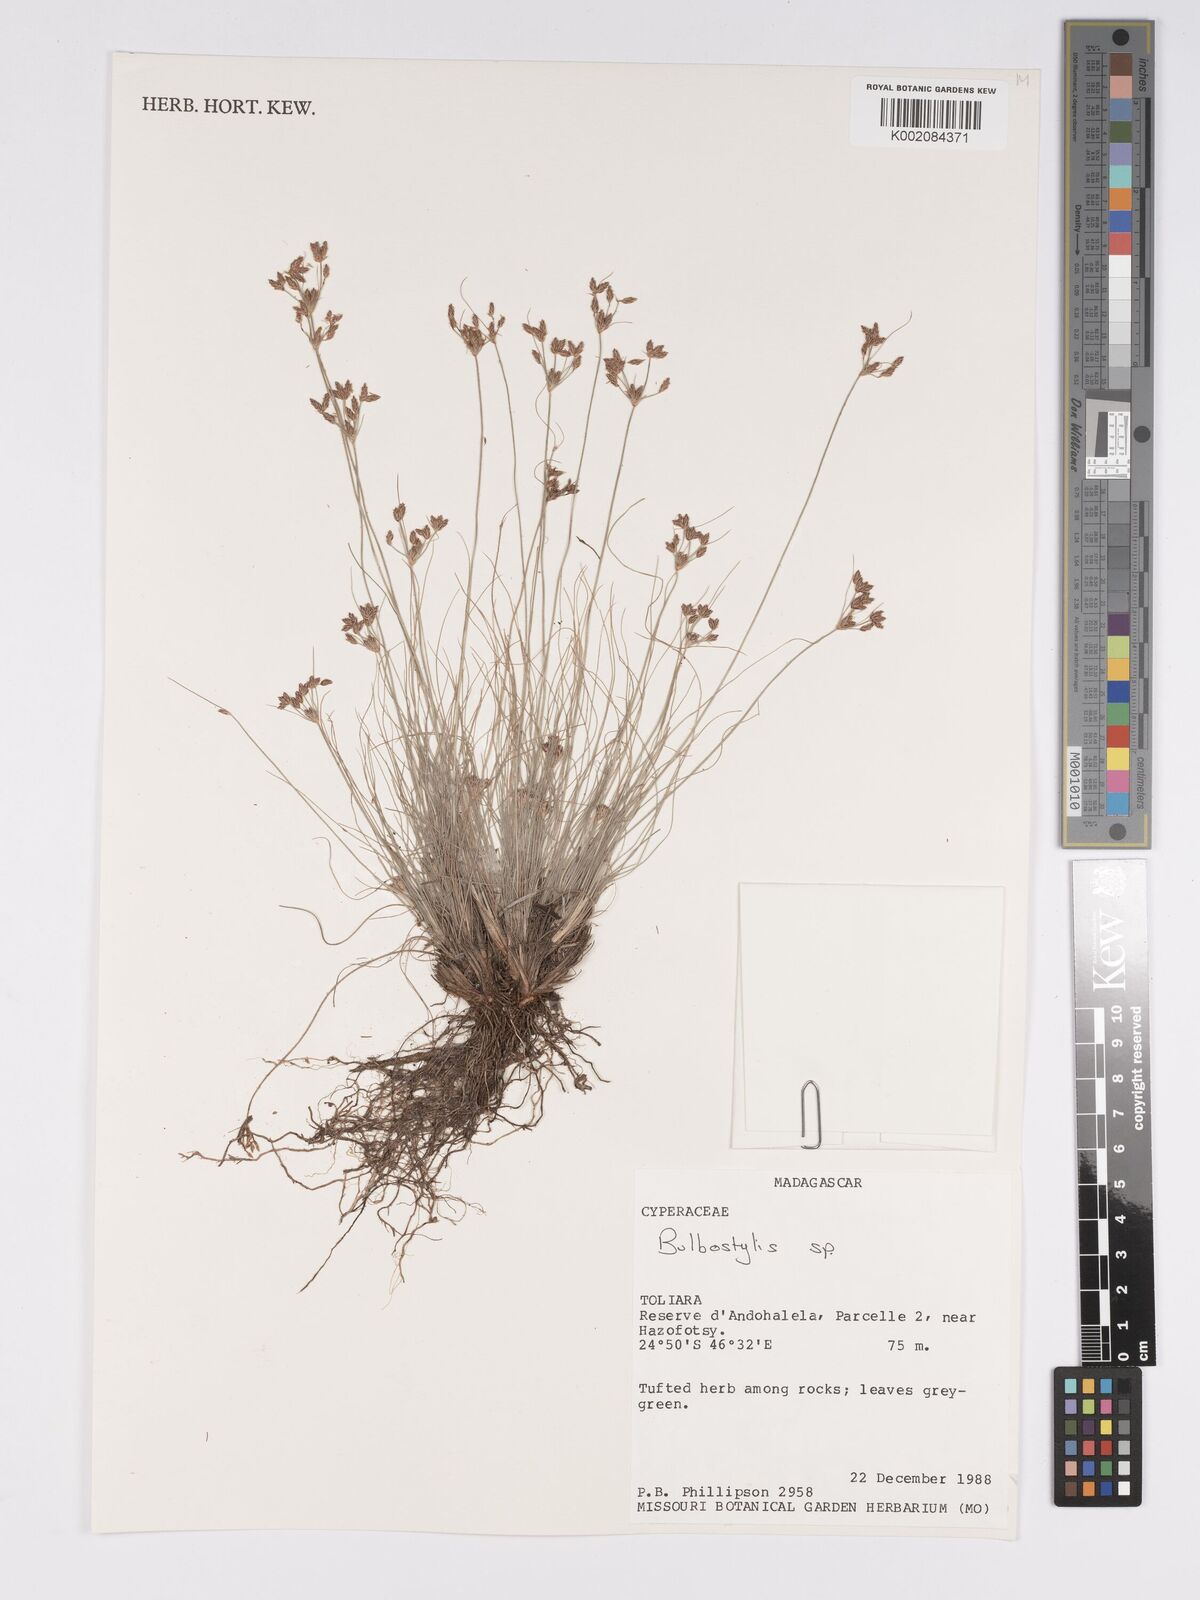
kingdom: Plantae
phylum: Tracheophyta
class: Liliopsida
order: Poales
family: Cyperaceae
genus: Bulbostylis
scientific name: Bulbostylis
